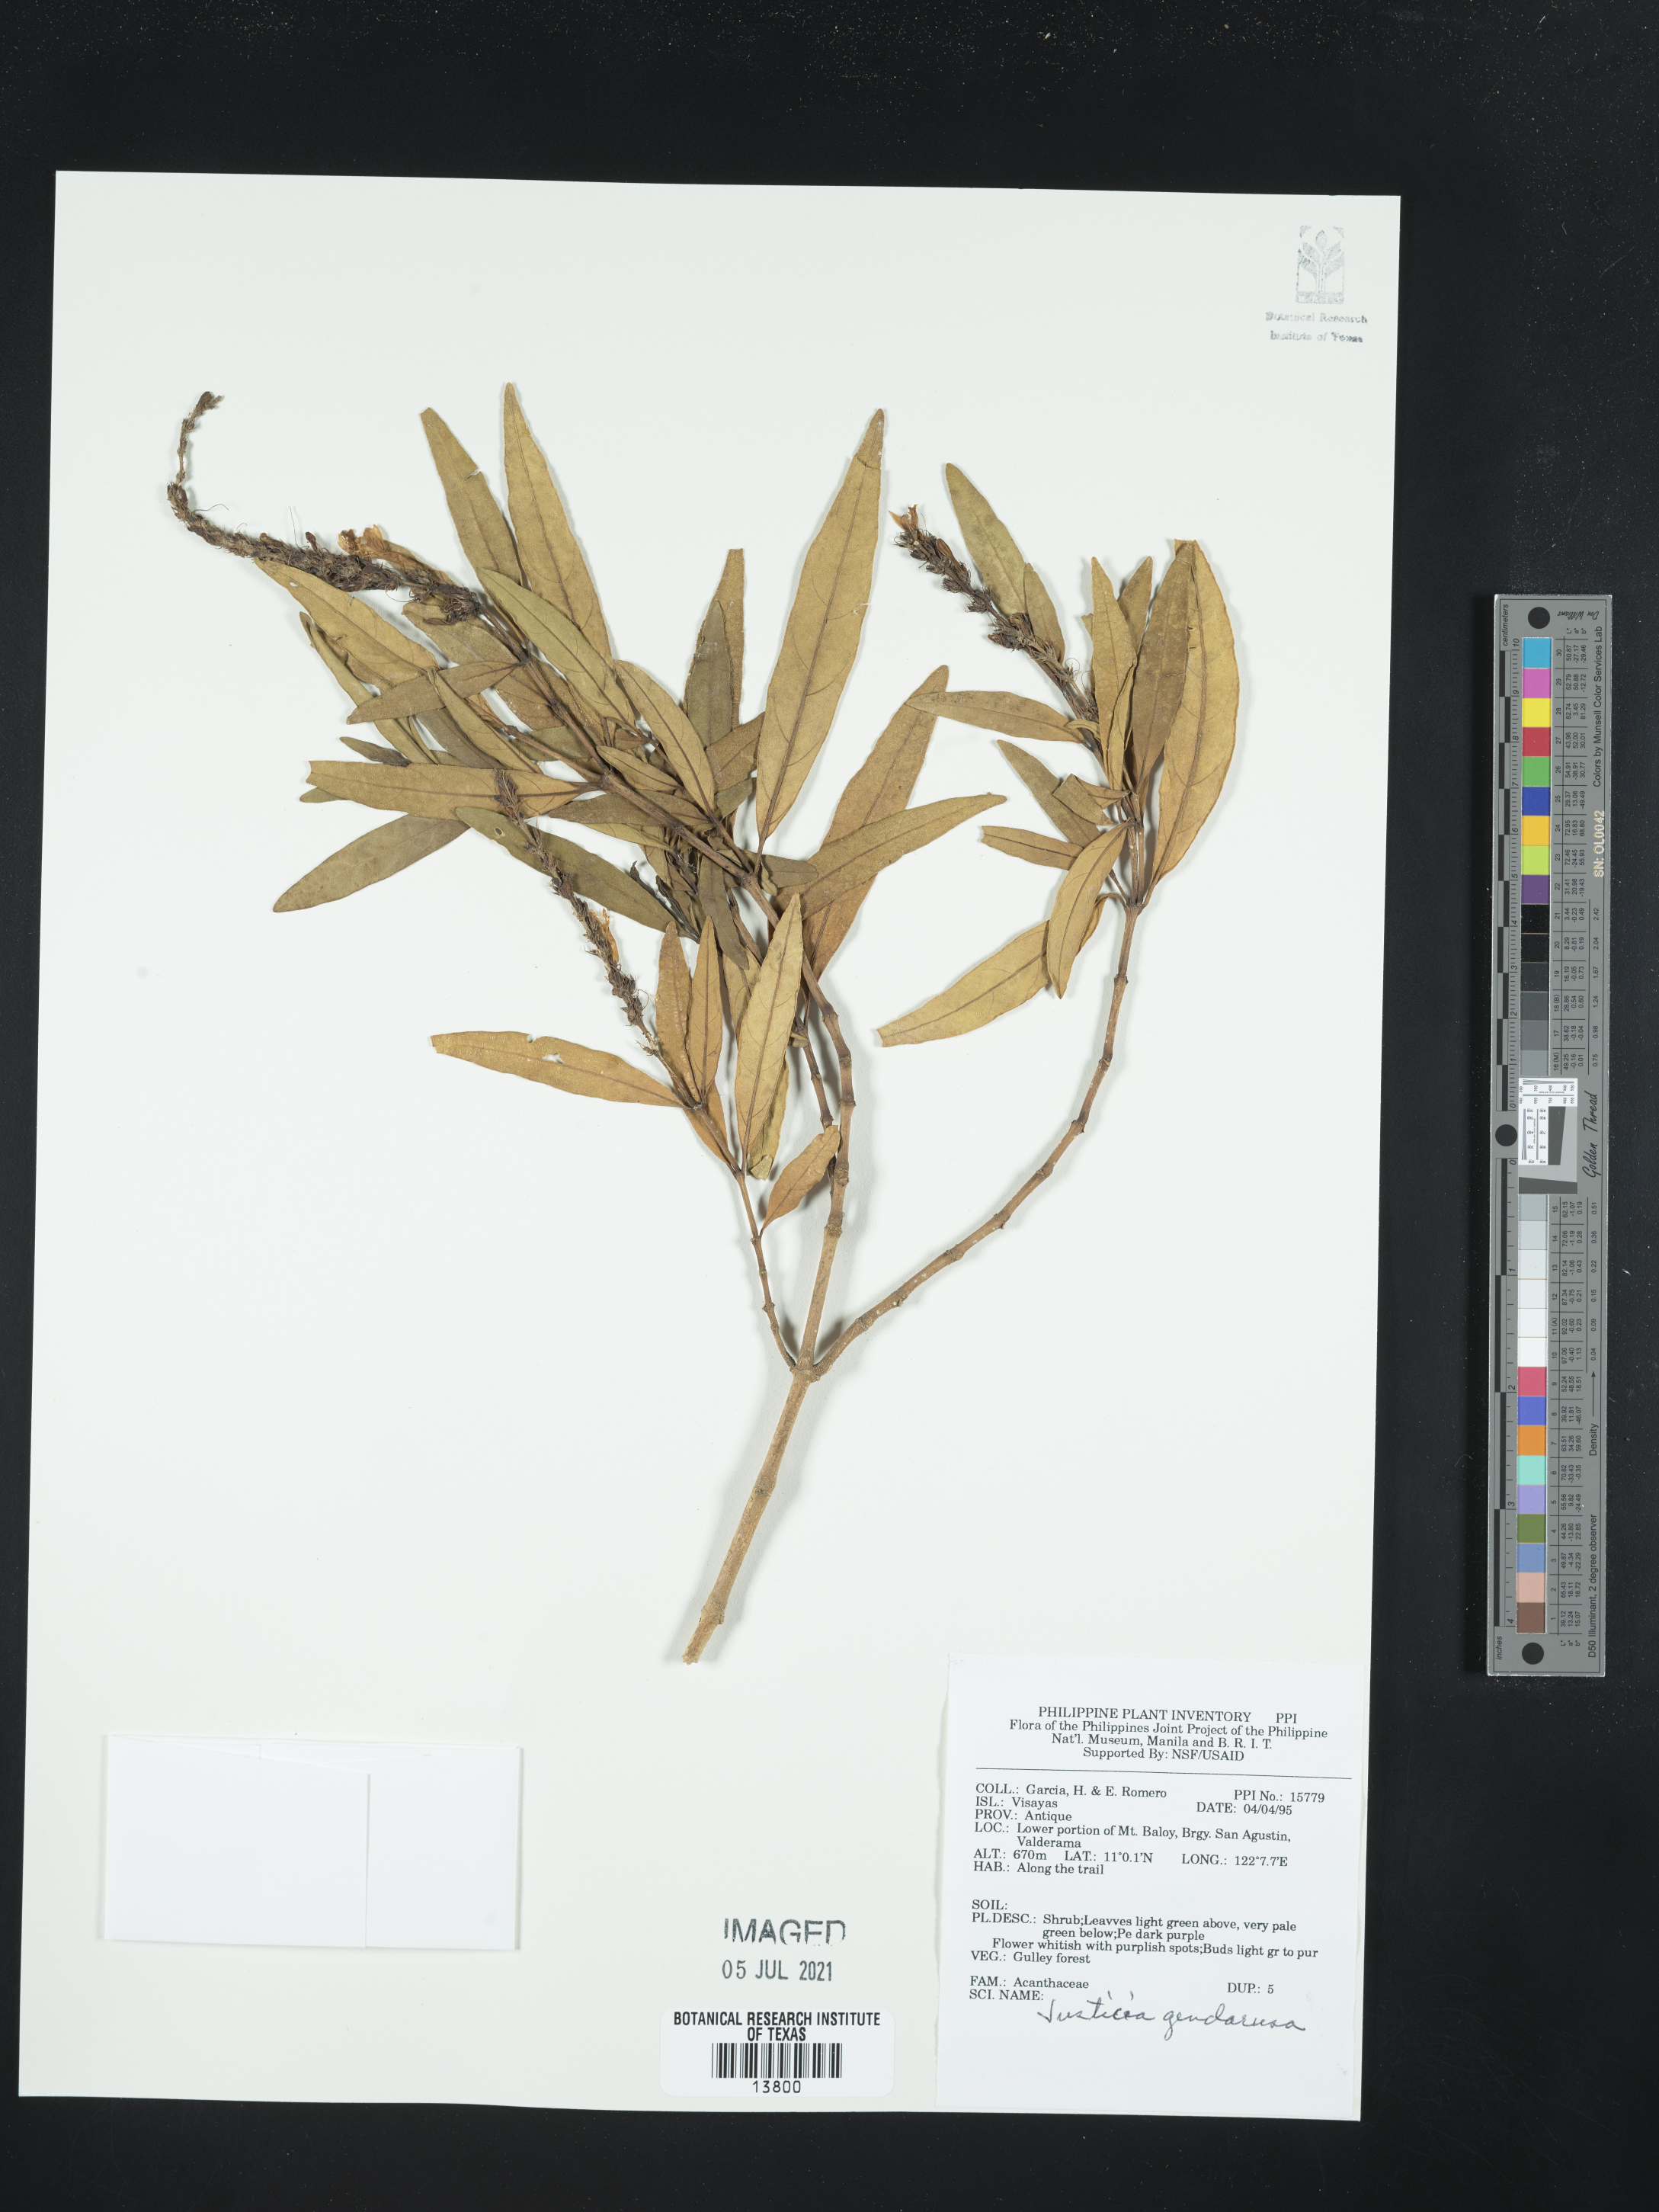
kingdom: Plantae
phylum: Tracheophyta
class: Magnoliopsida
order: Lamiales
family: Acanthaceae
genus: Justicia
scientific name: Justicia gendarussa
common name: Warer willow
